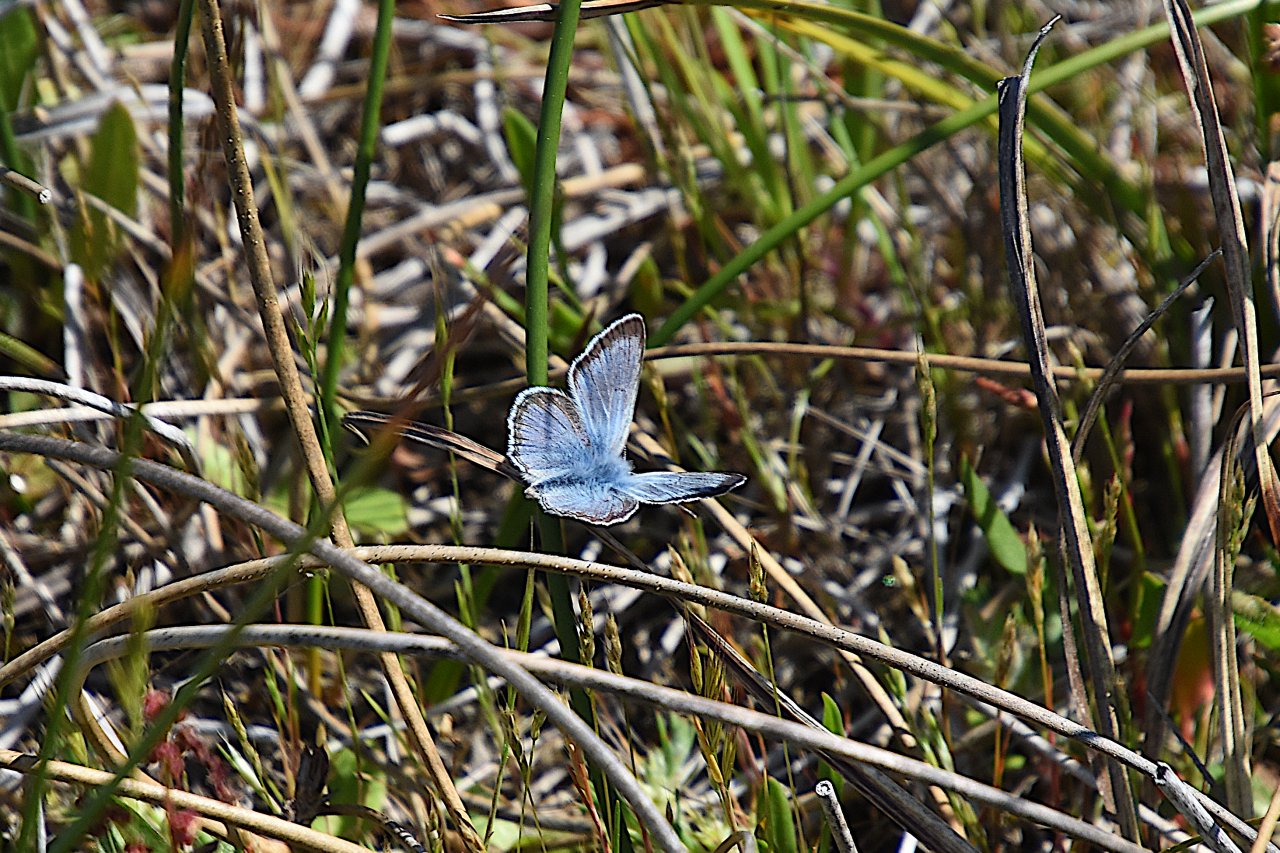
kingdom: Animalia
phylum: Arthropoda
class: Insecta
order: Lepidoptera
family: Lycaenidae
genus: Plebejus
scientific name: Plebejus saepiolus
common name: Greenish Blue
